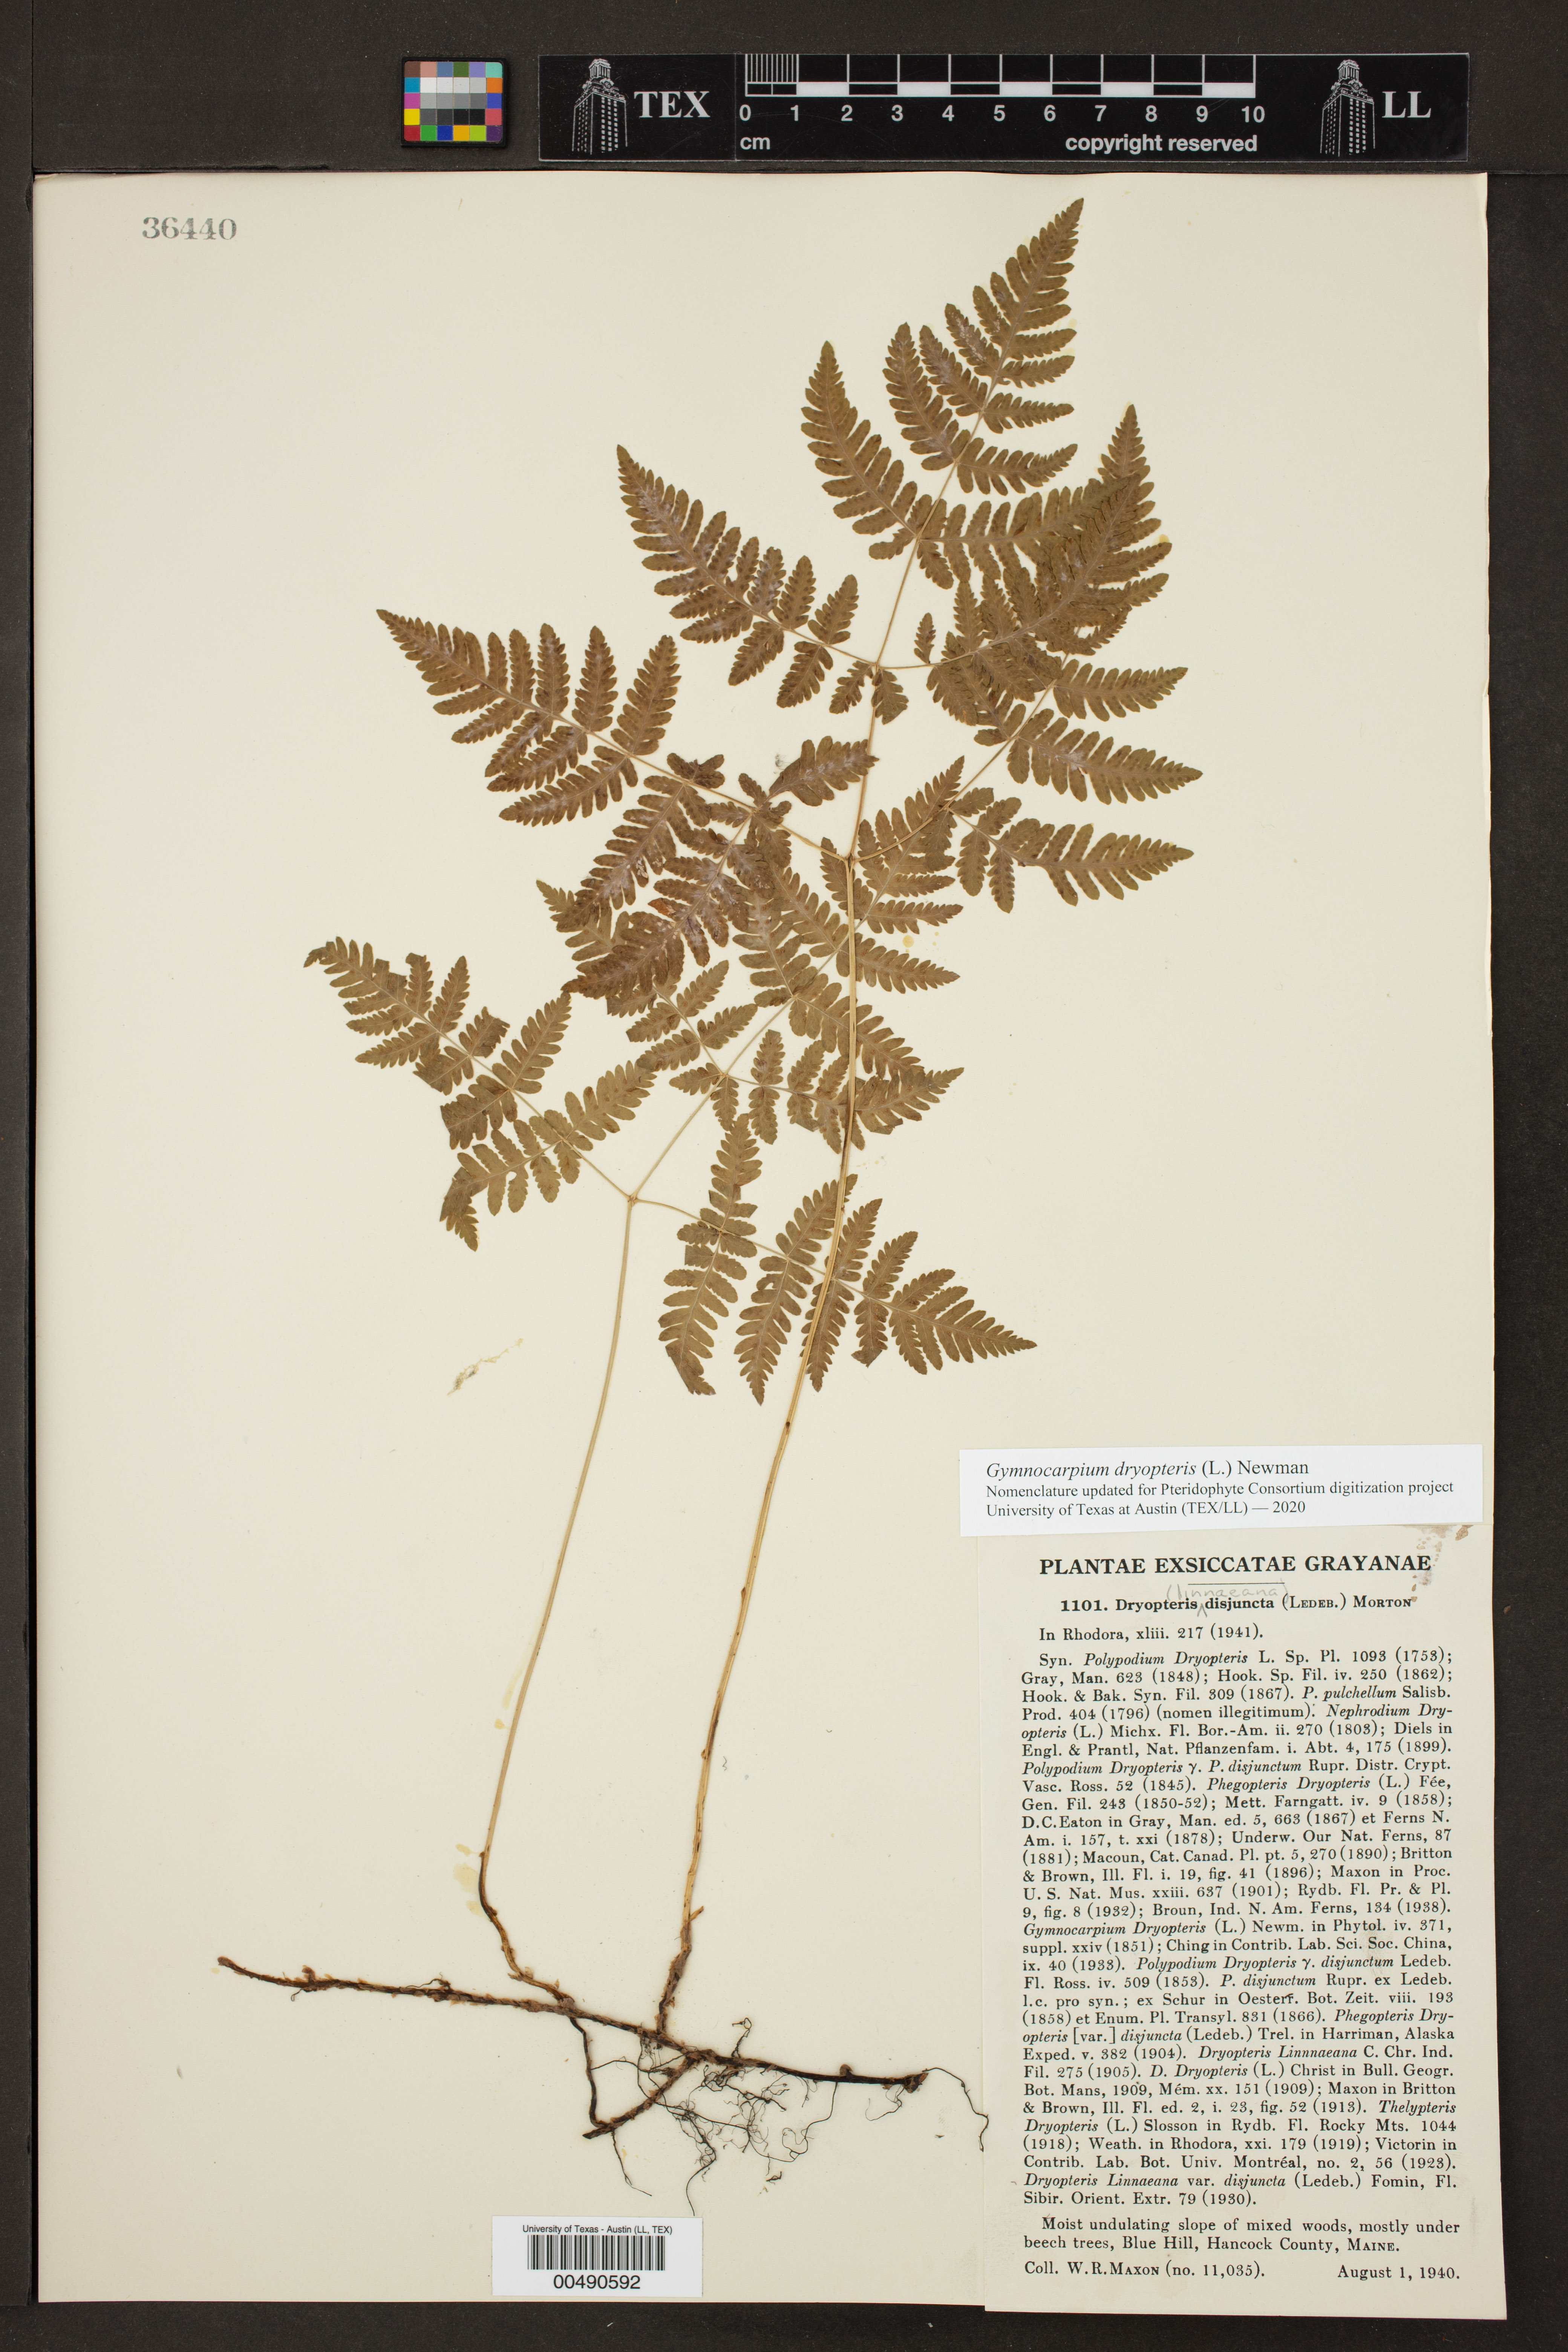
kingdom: Plantae
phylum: Tracheophyta
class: Polypodiopsida
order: Polypodiales
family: Cystopteridaceae
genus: Gymnocarpium
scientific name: Gymnocarpium dryopteris
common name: Oak fern
